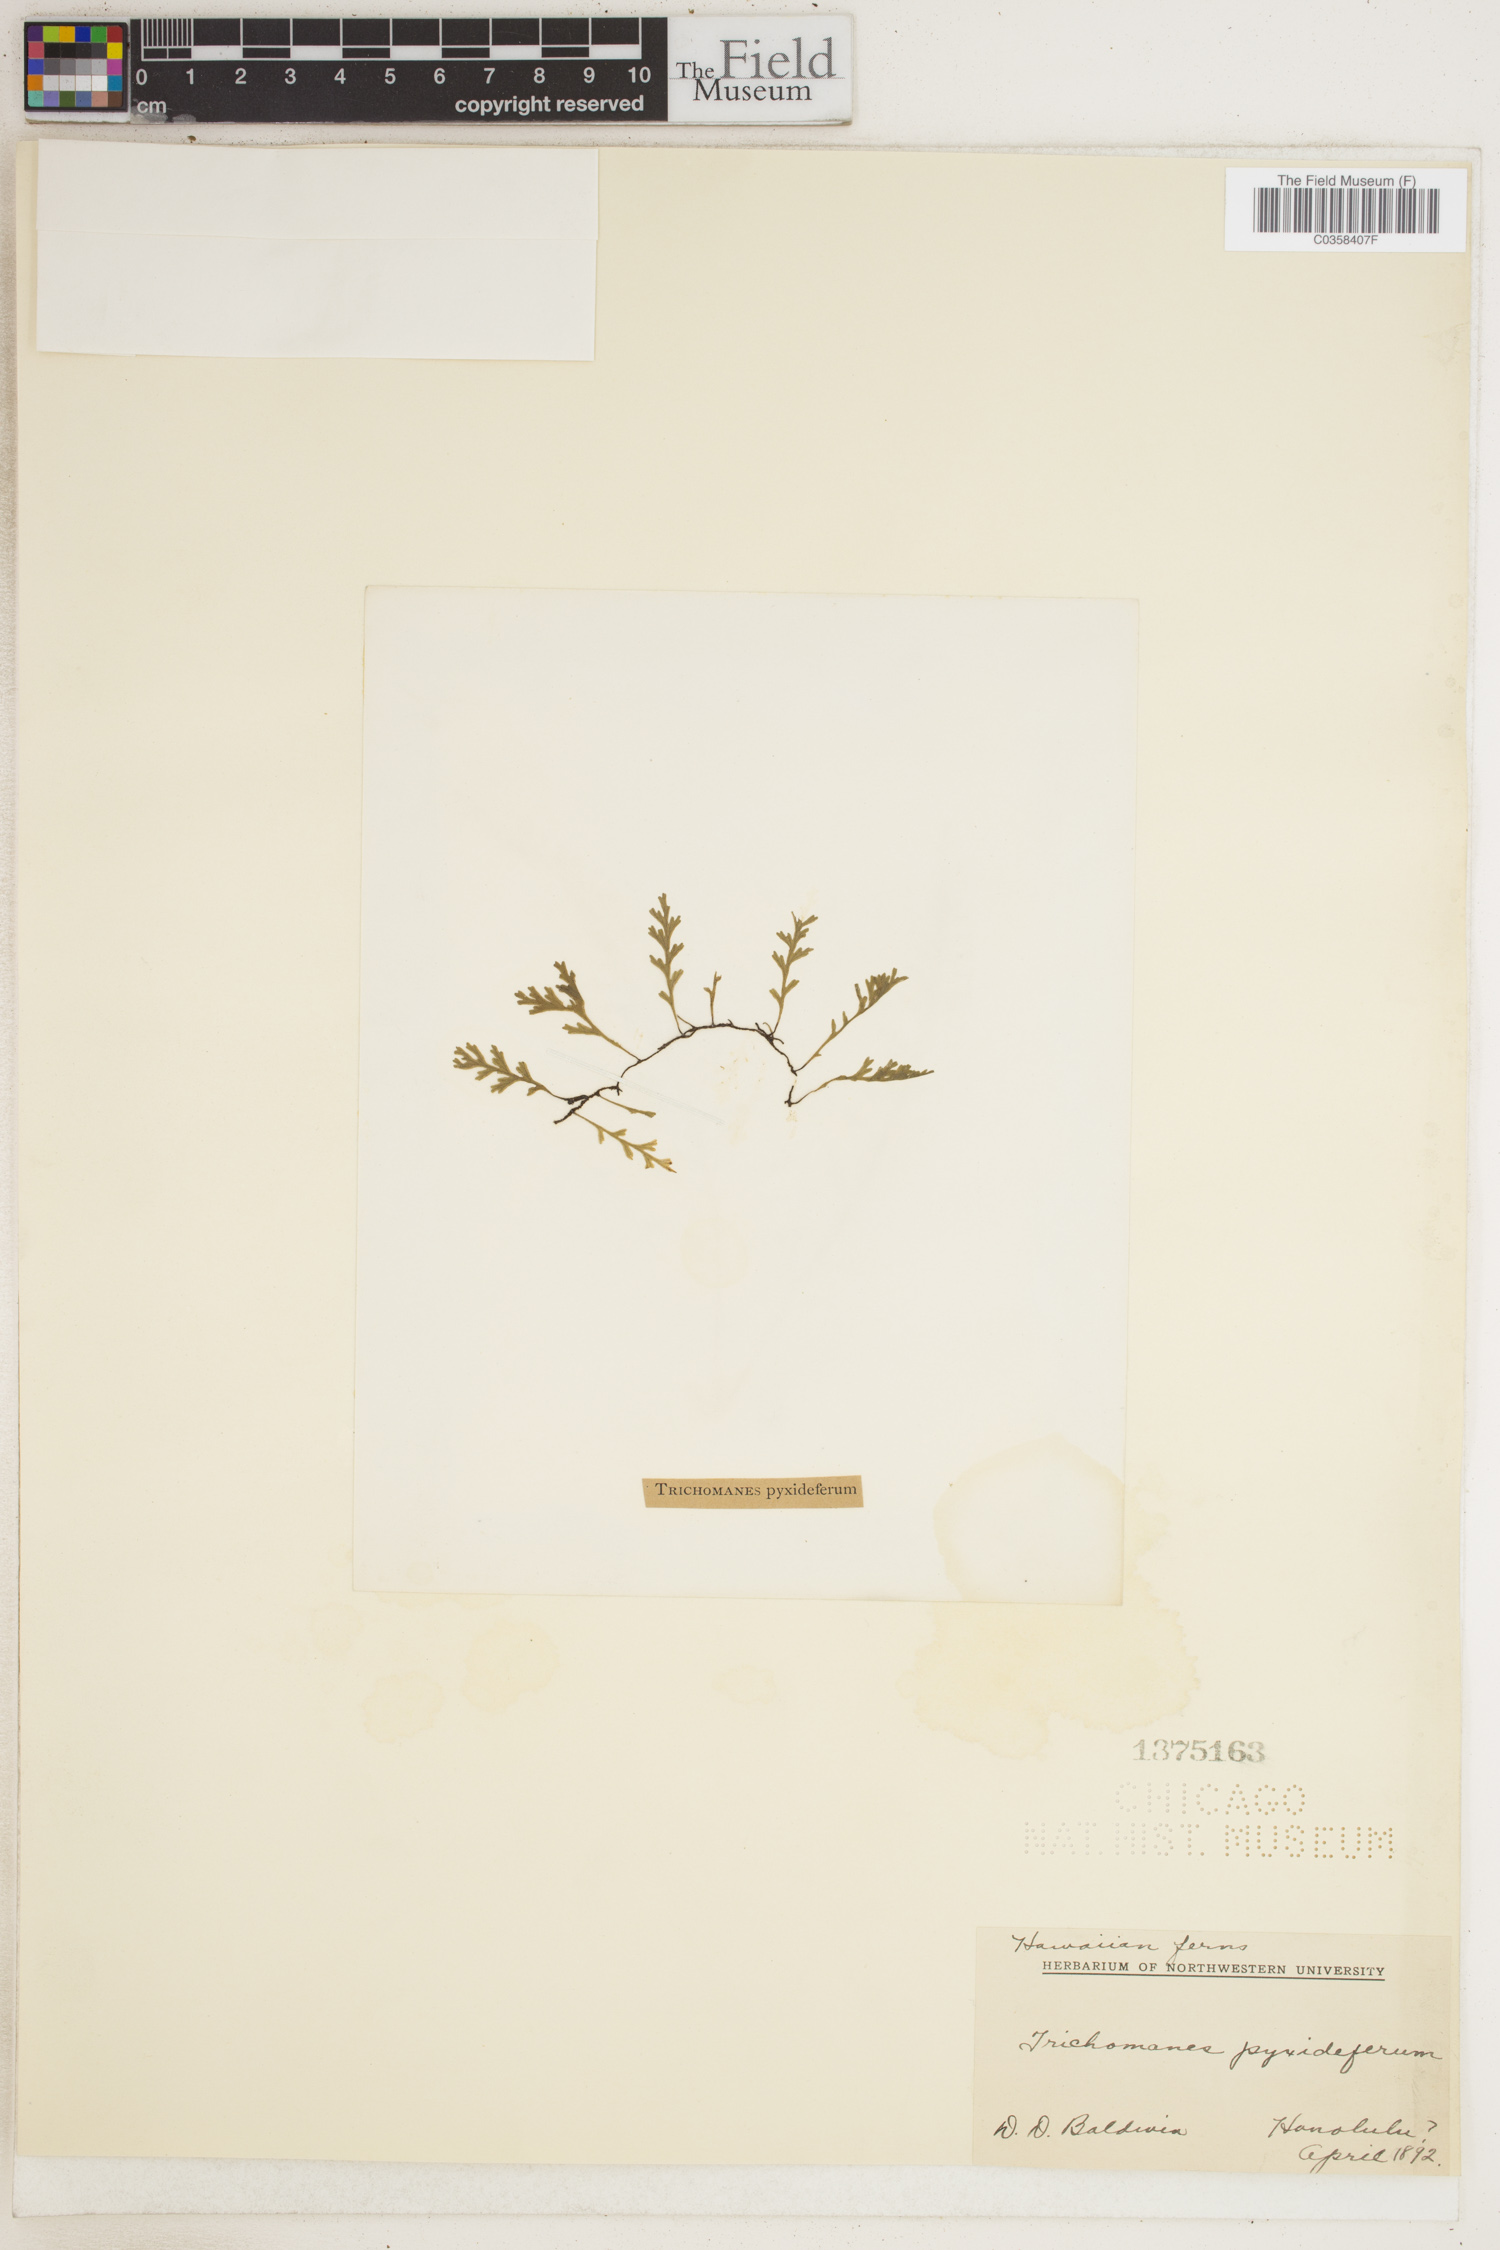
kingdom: Plantae
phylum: Tracheophyta
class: Polypodiopsida
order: Hymenophyllales
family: Hymenophyllaceae
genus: Polyphlebium
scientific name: Polyphlebium pyxidiferum
